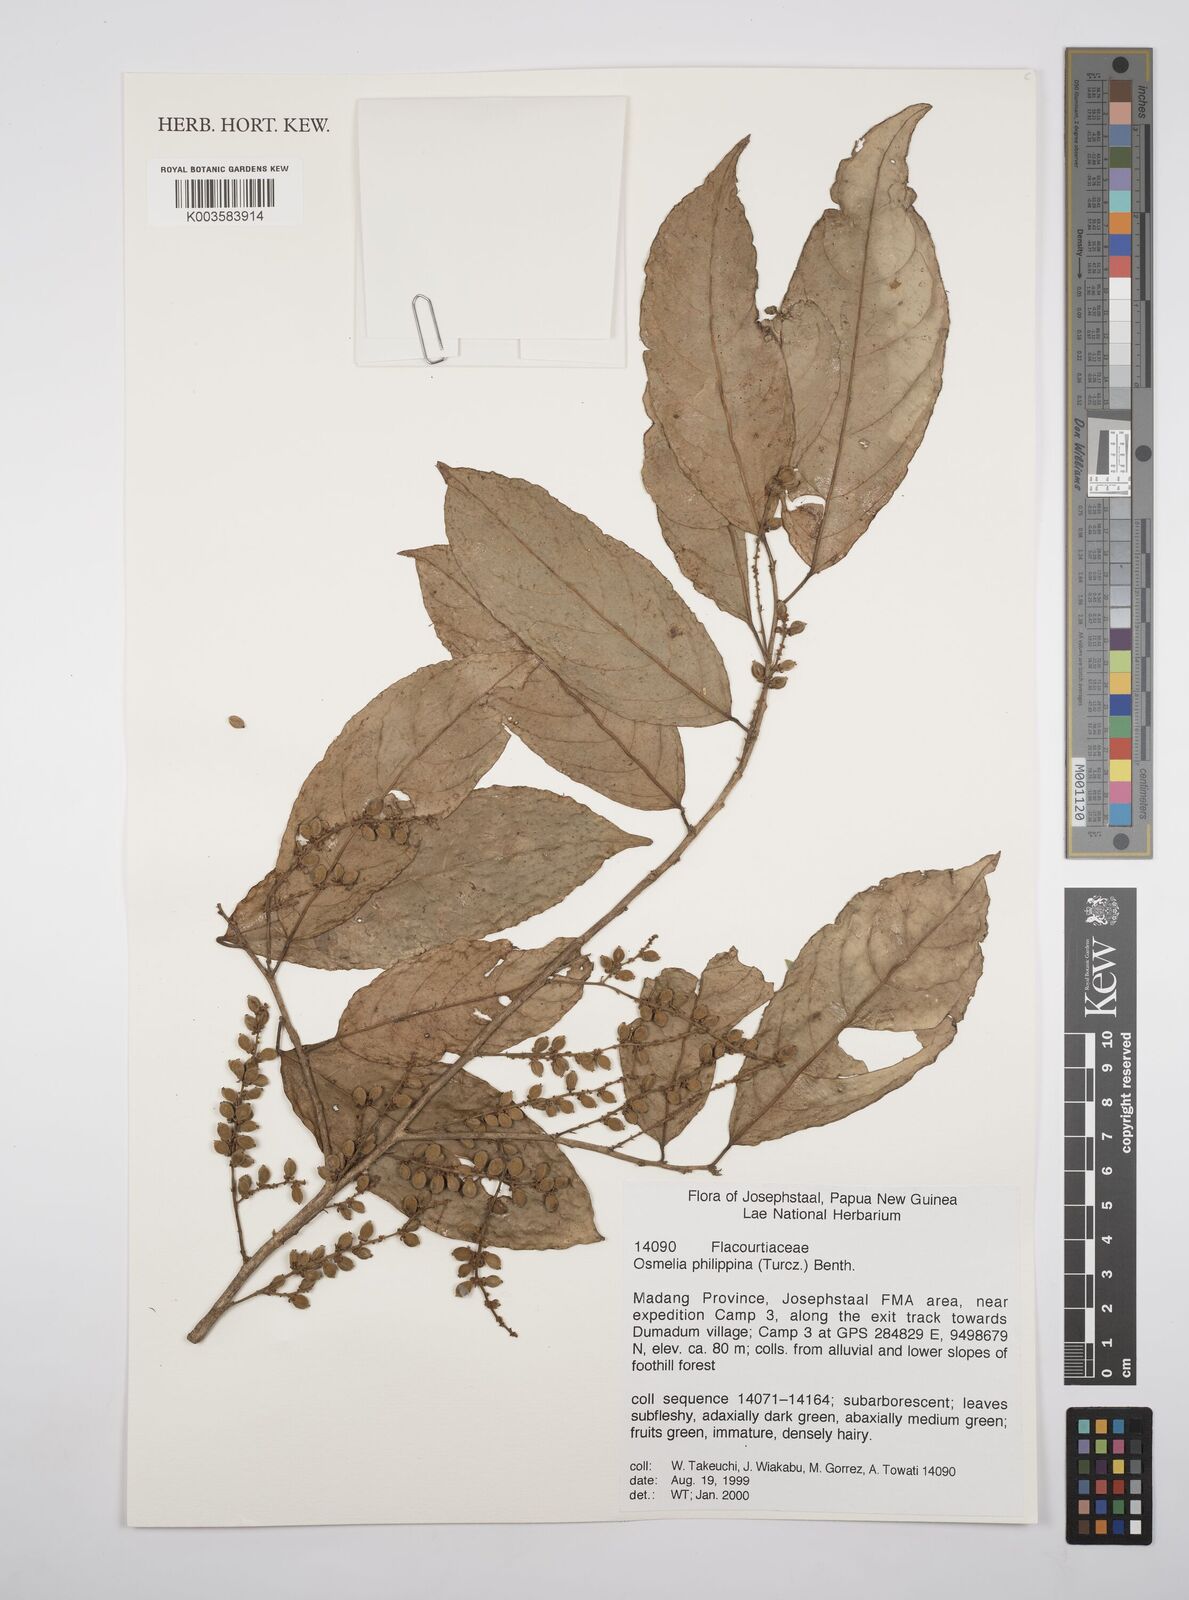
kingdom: Plantae
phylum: Tracheophyta
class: Magnoliopsida
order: Malpighiales
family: Salicaceae
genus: Osmelia
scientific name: Osmelia philippina
